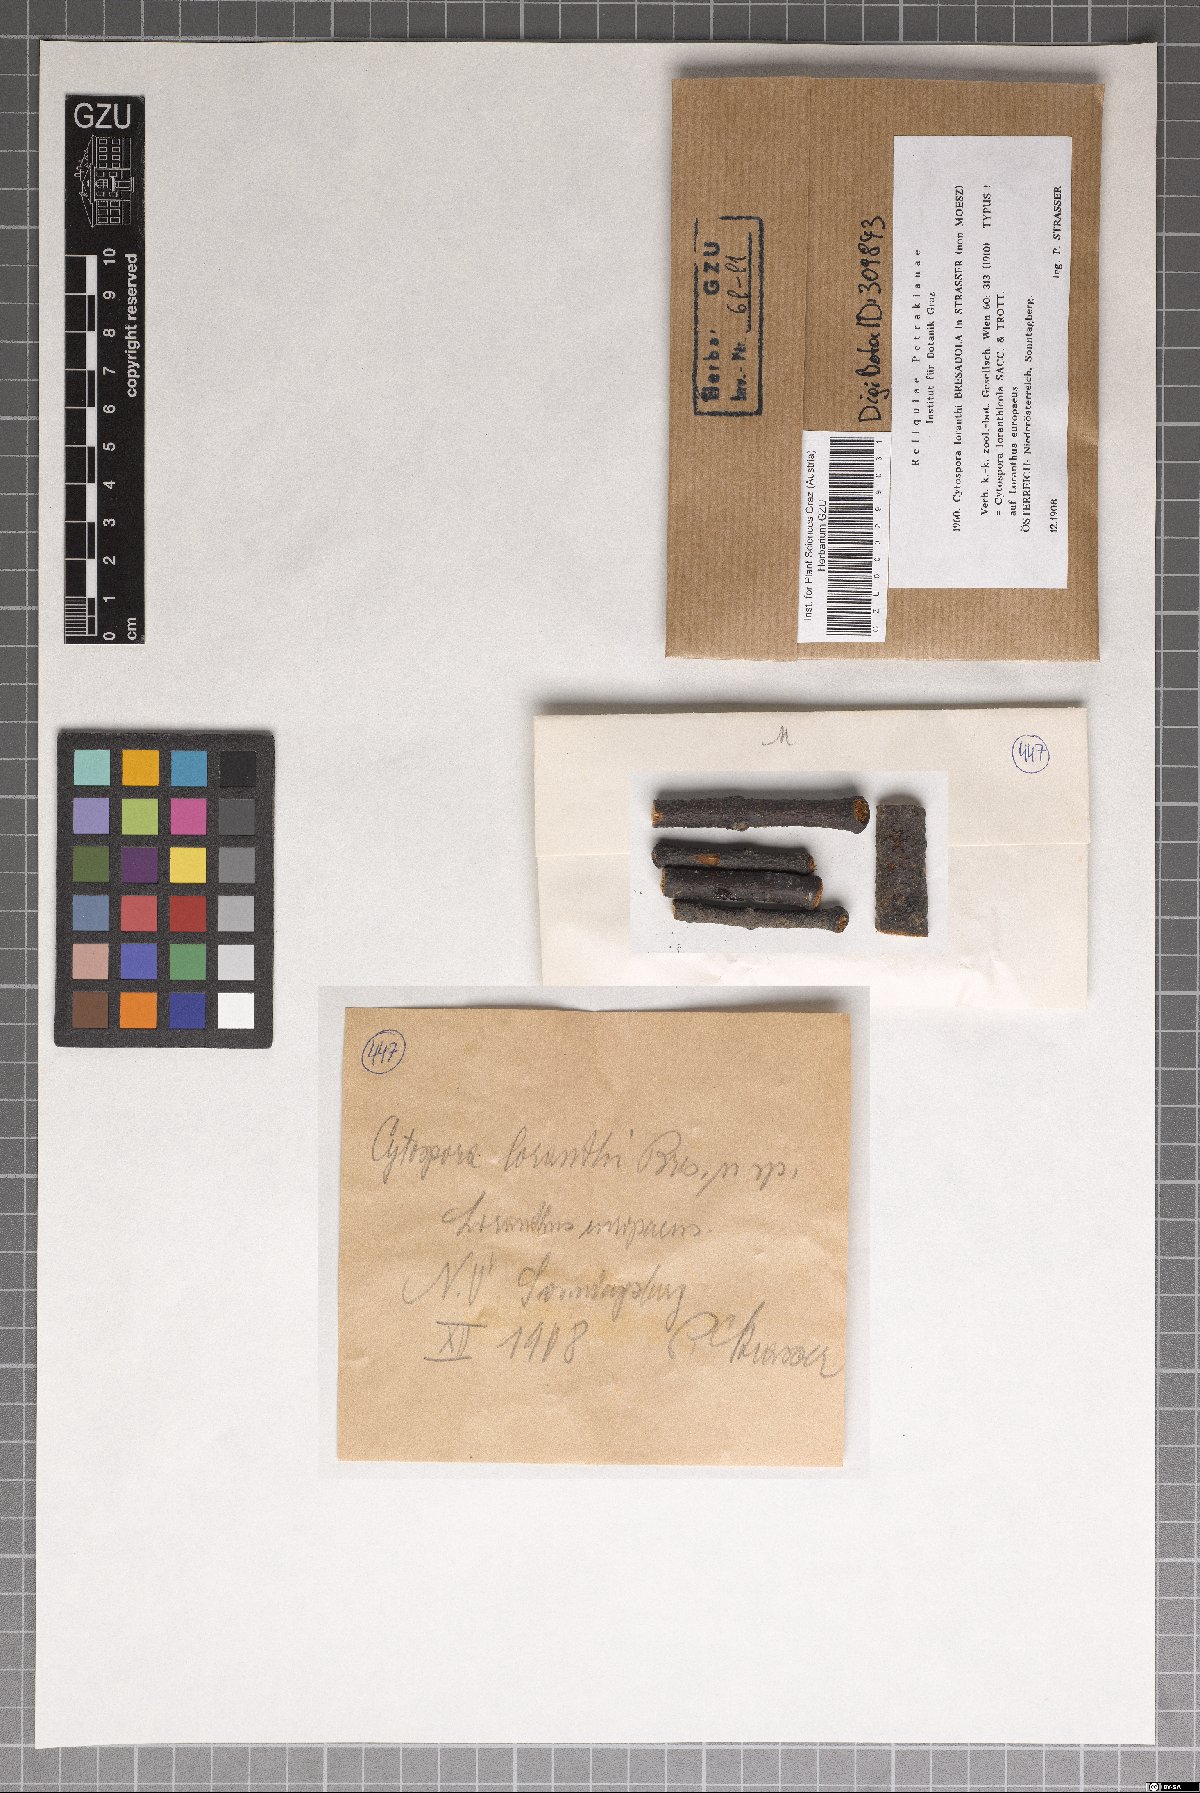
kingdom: Fungi
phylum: Ascomycota
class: Sordariomycetes
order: Diaporthales
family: Valsaceae
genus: Cytospora
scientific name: Cytospora loranthicola
